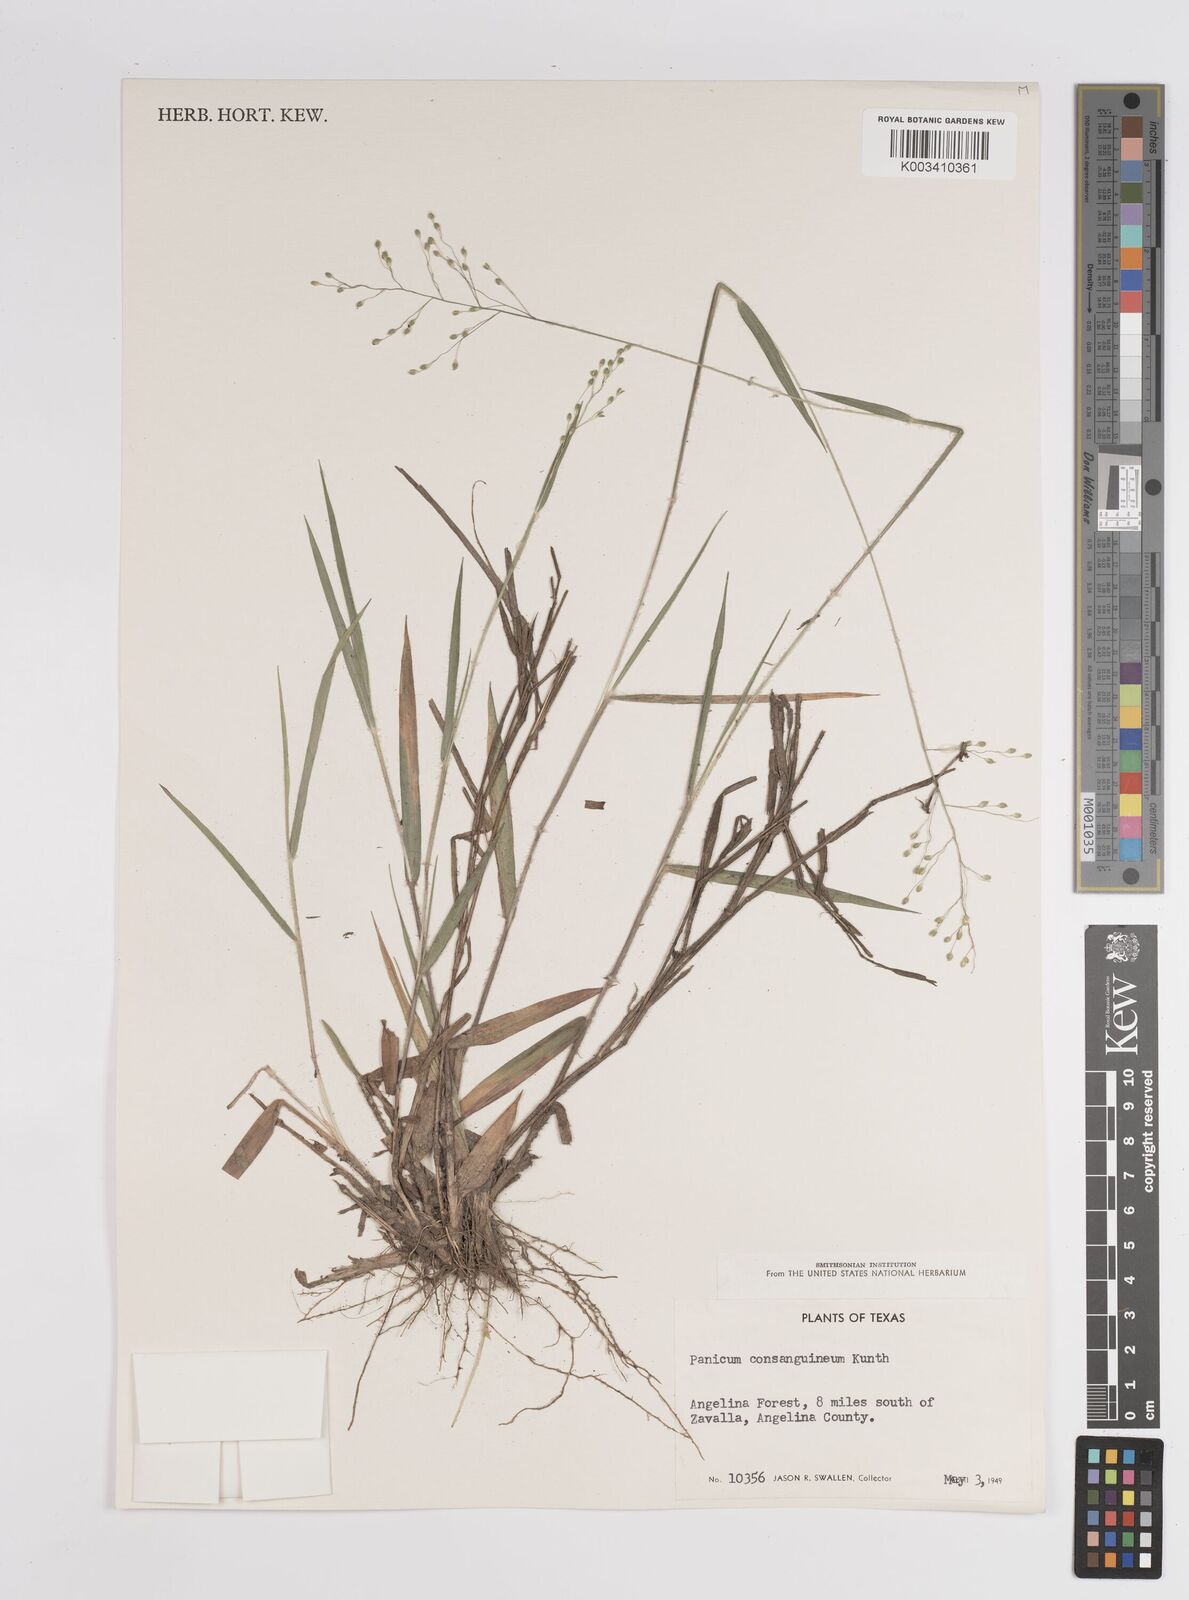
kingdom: Plantae
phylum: Tracheophyta
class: Liliopsida
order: Poales
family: Poaceae
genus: Dichanthelium
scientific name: Dichanthelium consanguineum
